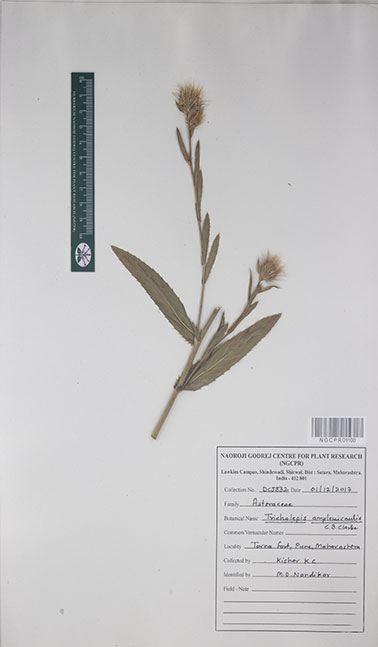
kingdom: Plantae
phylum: Tracheophyta
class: Magnoliopsida
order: Asterales
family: Asteraceae
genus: Tricholepis
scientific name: Tricholepis amplexicaulis
